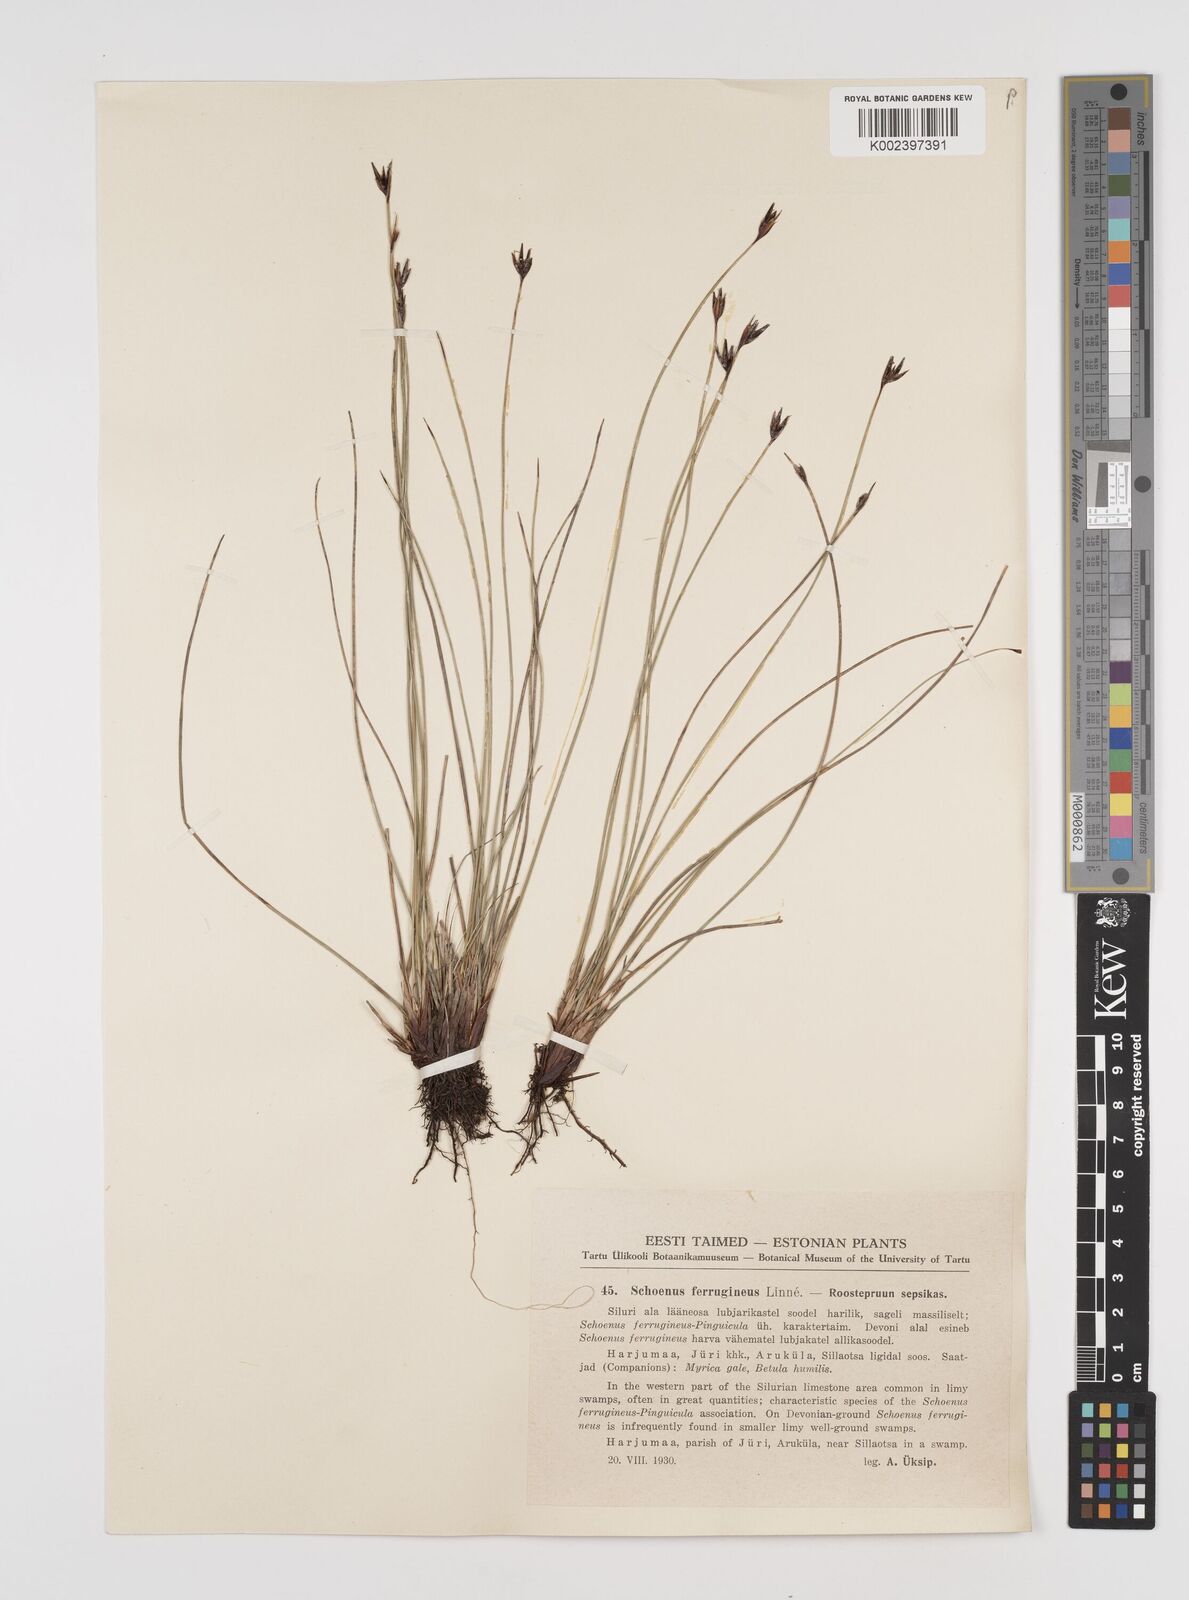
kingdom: Plantae
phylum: Tracheophyta
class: Liliopsida
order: Poales
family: Cyperaceae
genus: Schoenus
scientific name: Schoenus ferrugineus
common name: Brown bog-rush
